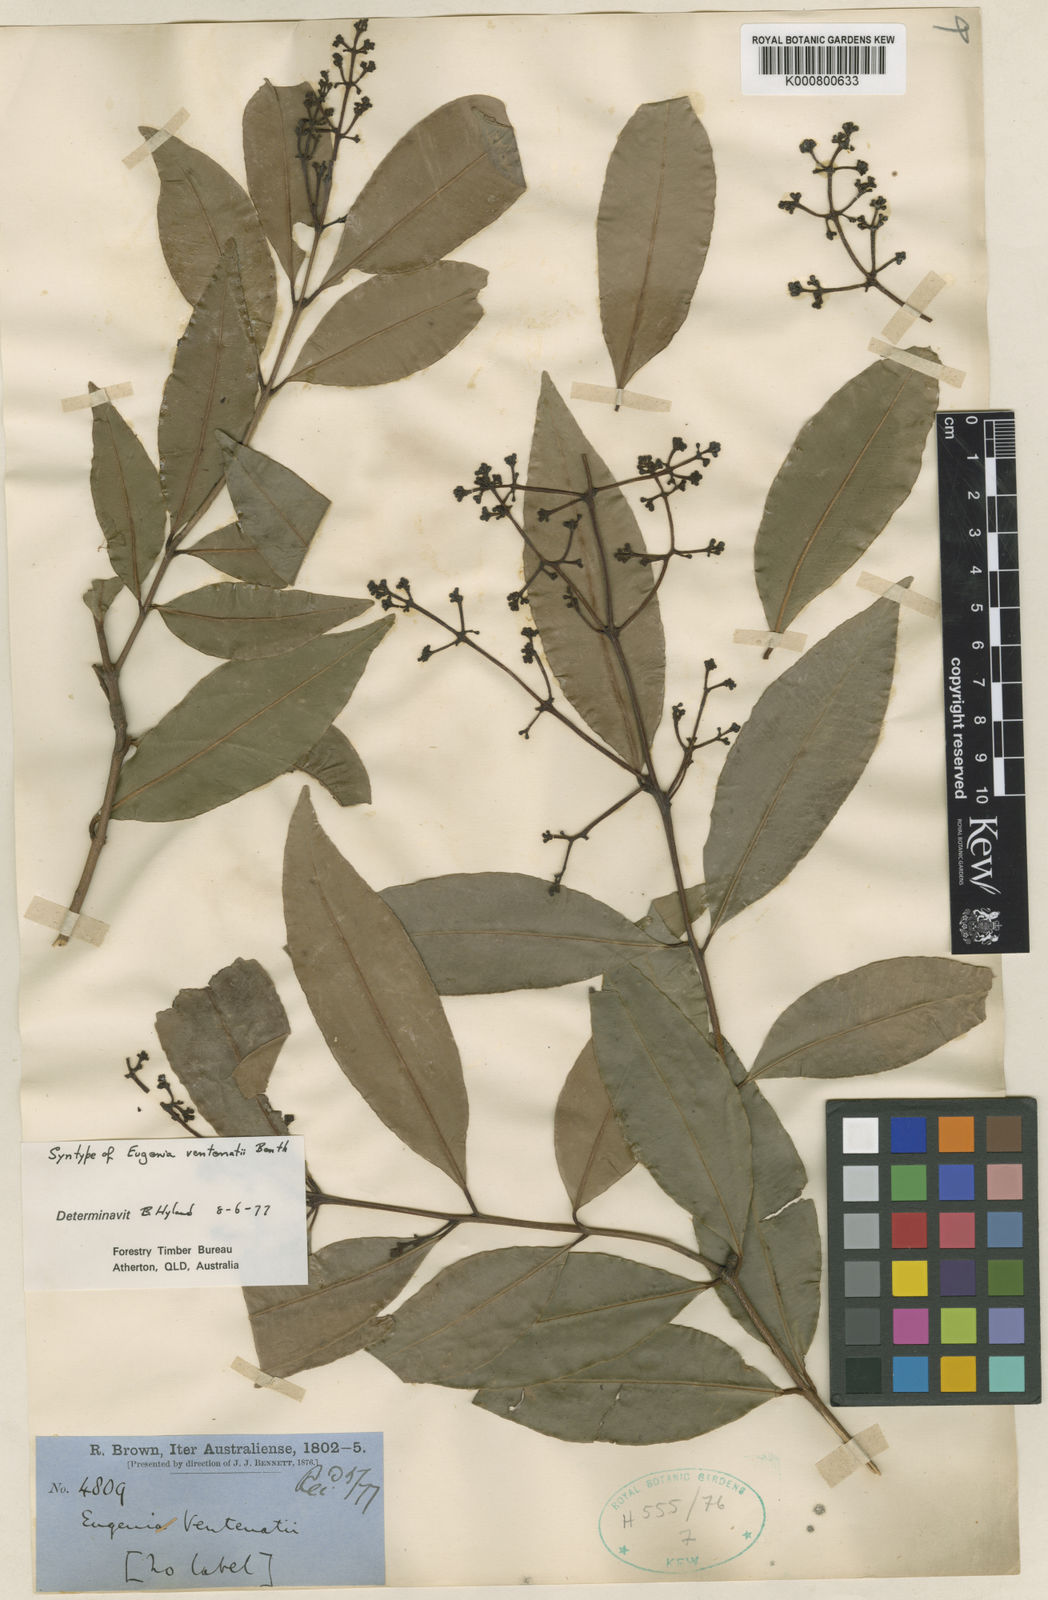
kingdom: Plantae
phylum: Tracheophyta
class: Magnoliopsida
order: Myrtales
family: Myrtaceae
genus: Syzygium
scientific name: Syzygium floribundum
